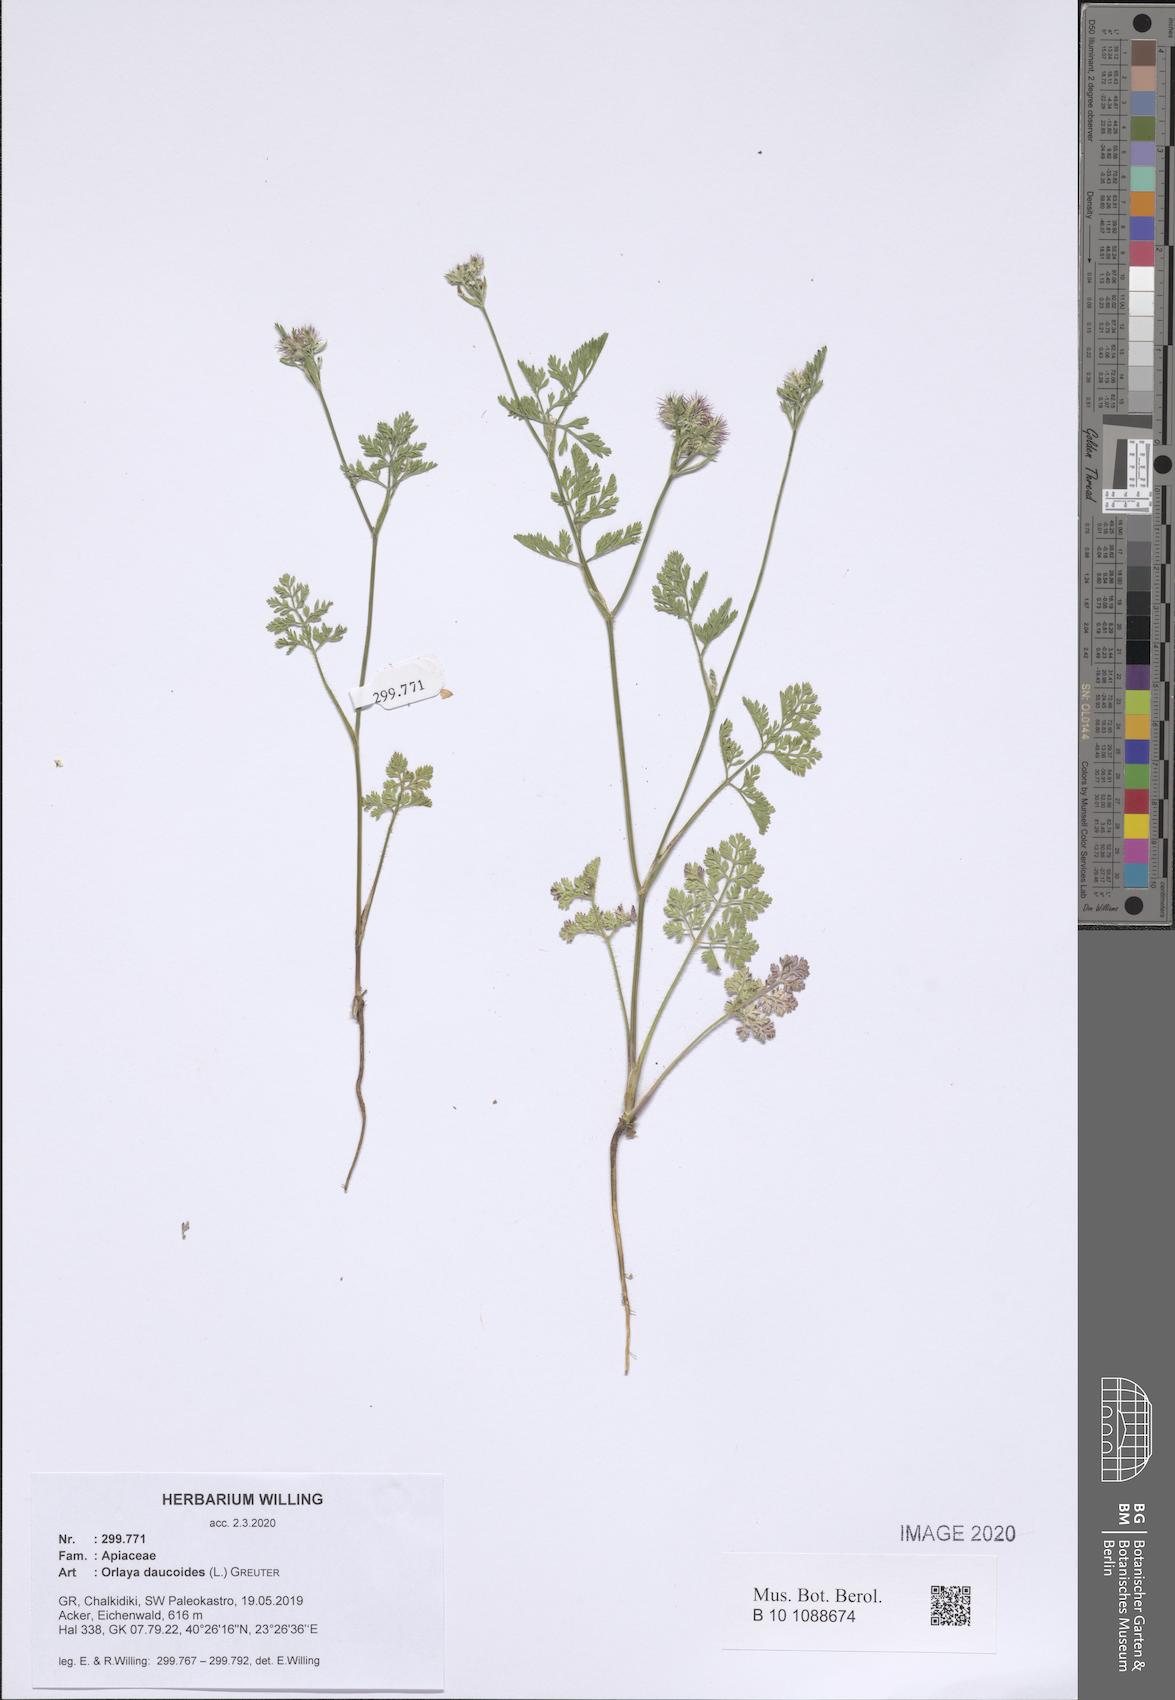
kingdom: Plantae
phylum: Tracheophyta
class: Magnoliopsida
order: Apiales
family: Apiaceae
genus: Orlaya
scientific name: Orlaya daucoides
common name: Flat-fruit orlaya
